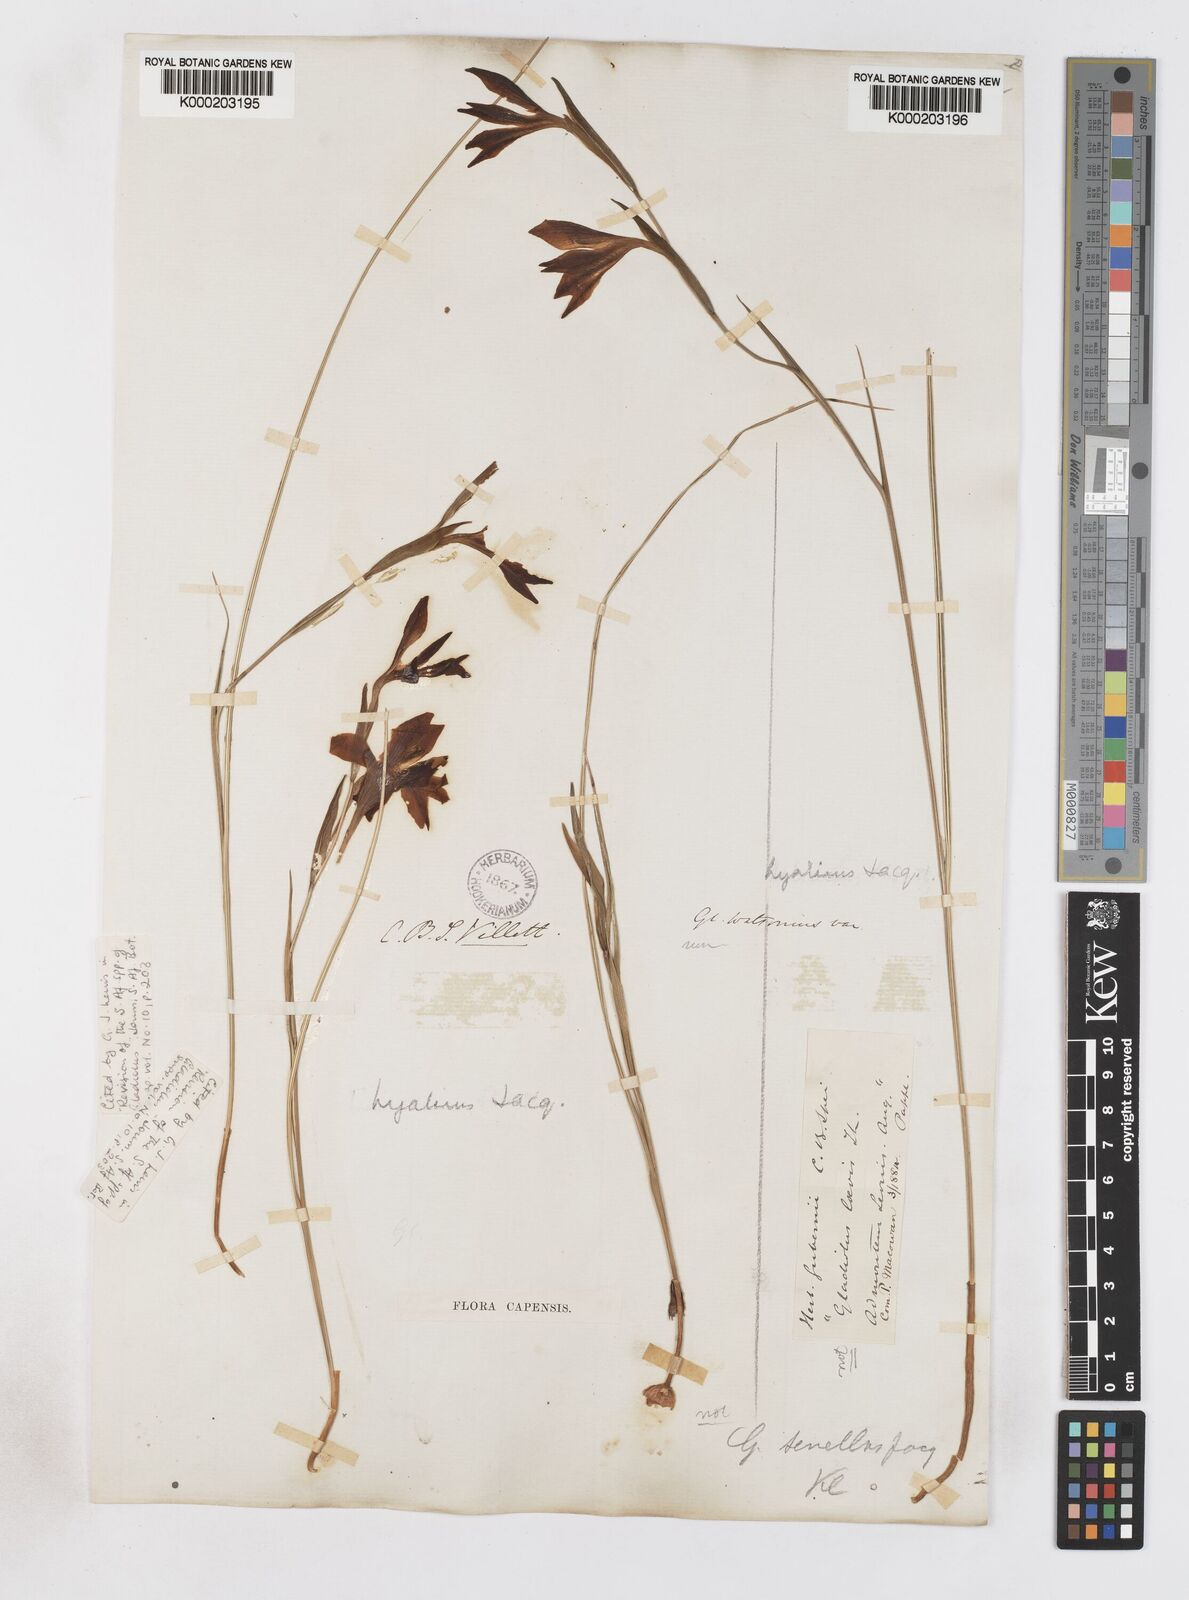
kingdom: Plantae
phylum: Tracheophyta
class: Liliopsida
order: Asparagales
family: Iridaceae
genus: Gladiolus
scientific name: Gladiolus hyalinus
